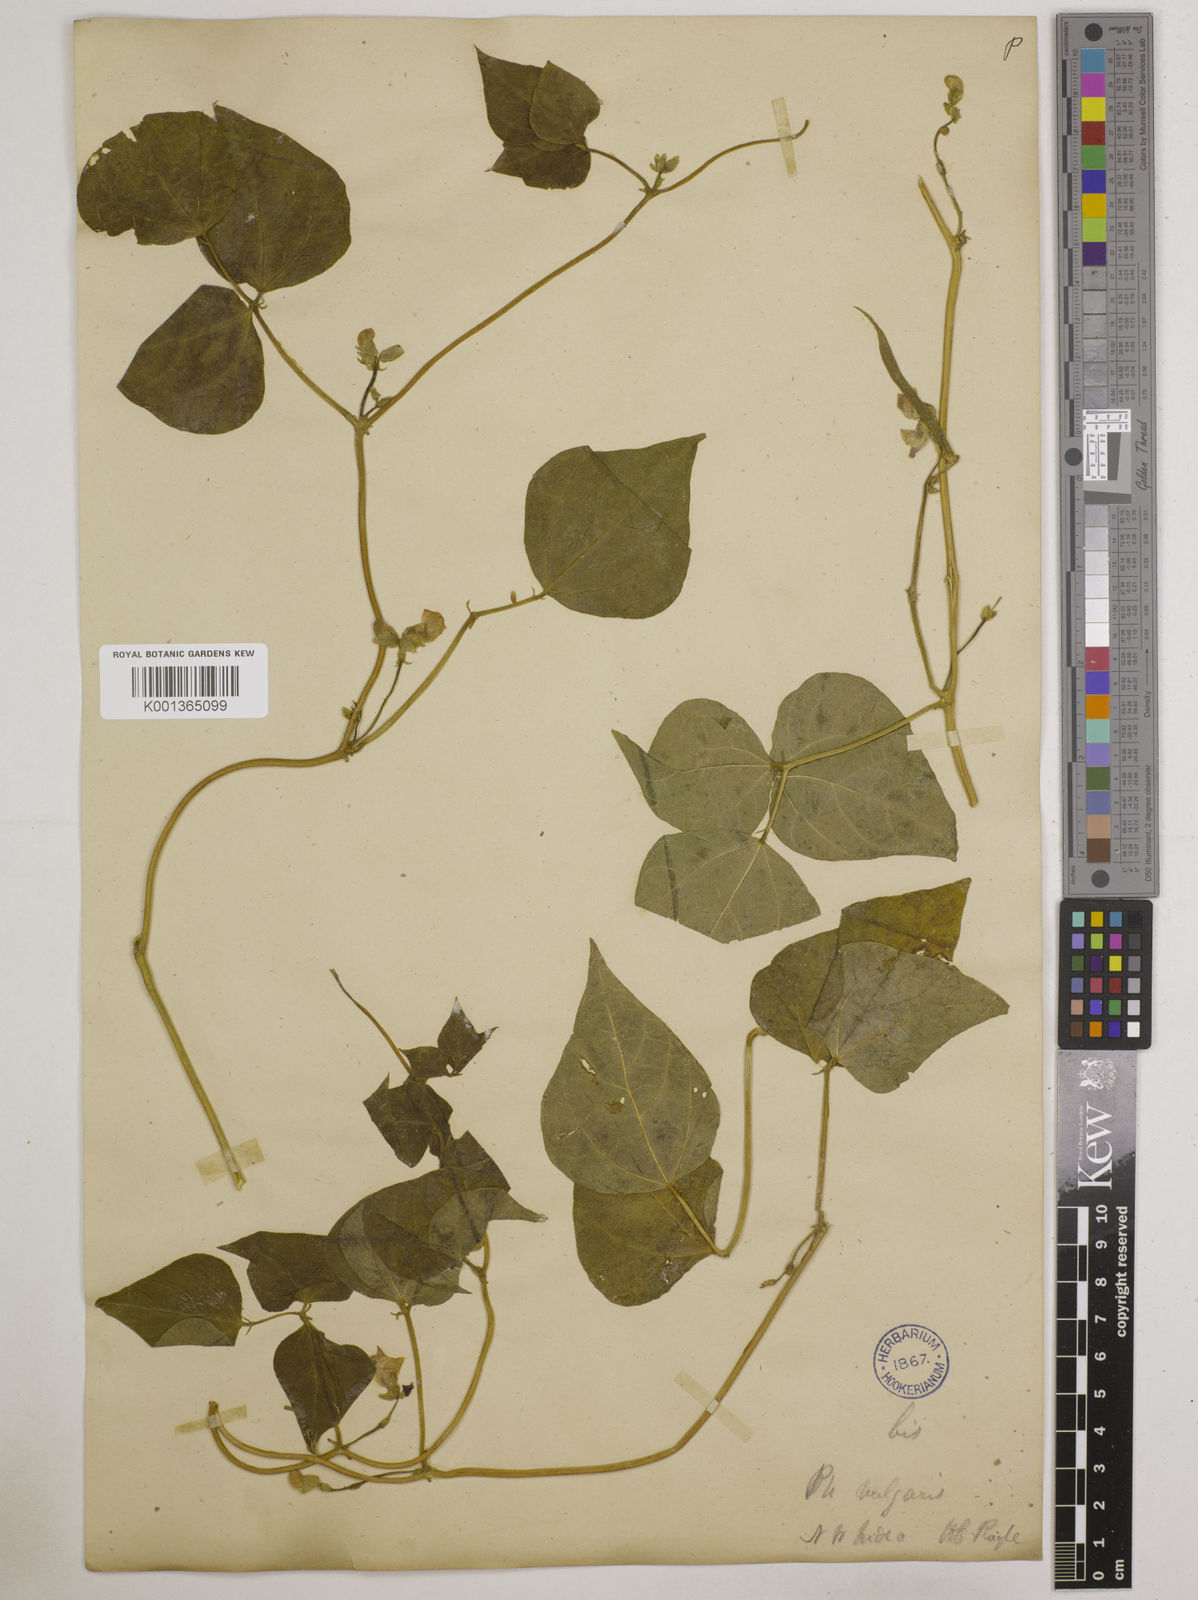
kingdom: Plantae
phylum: Tracheophyta
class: Magnoliopsida
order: Fabales
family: Fabaceae
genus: Phaseolus
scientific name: Phaseolus vulgaris
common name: Bean
